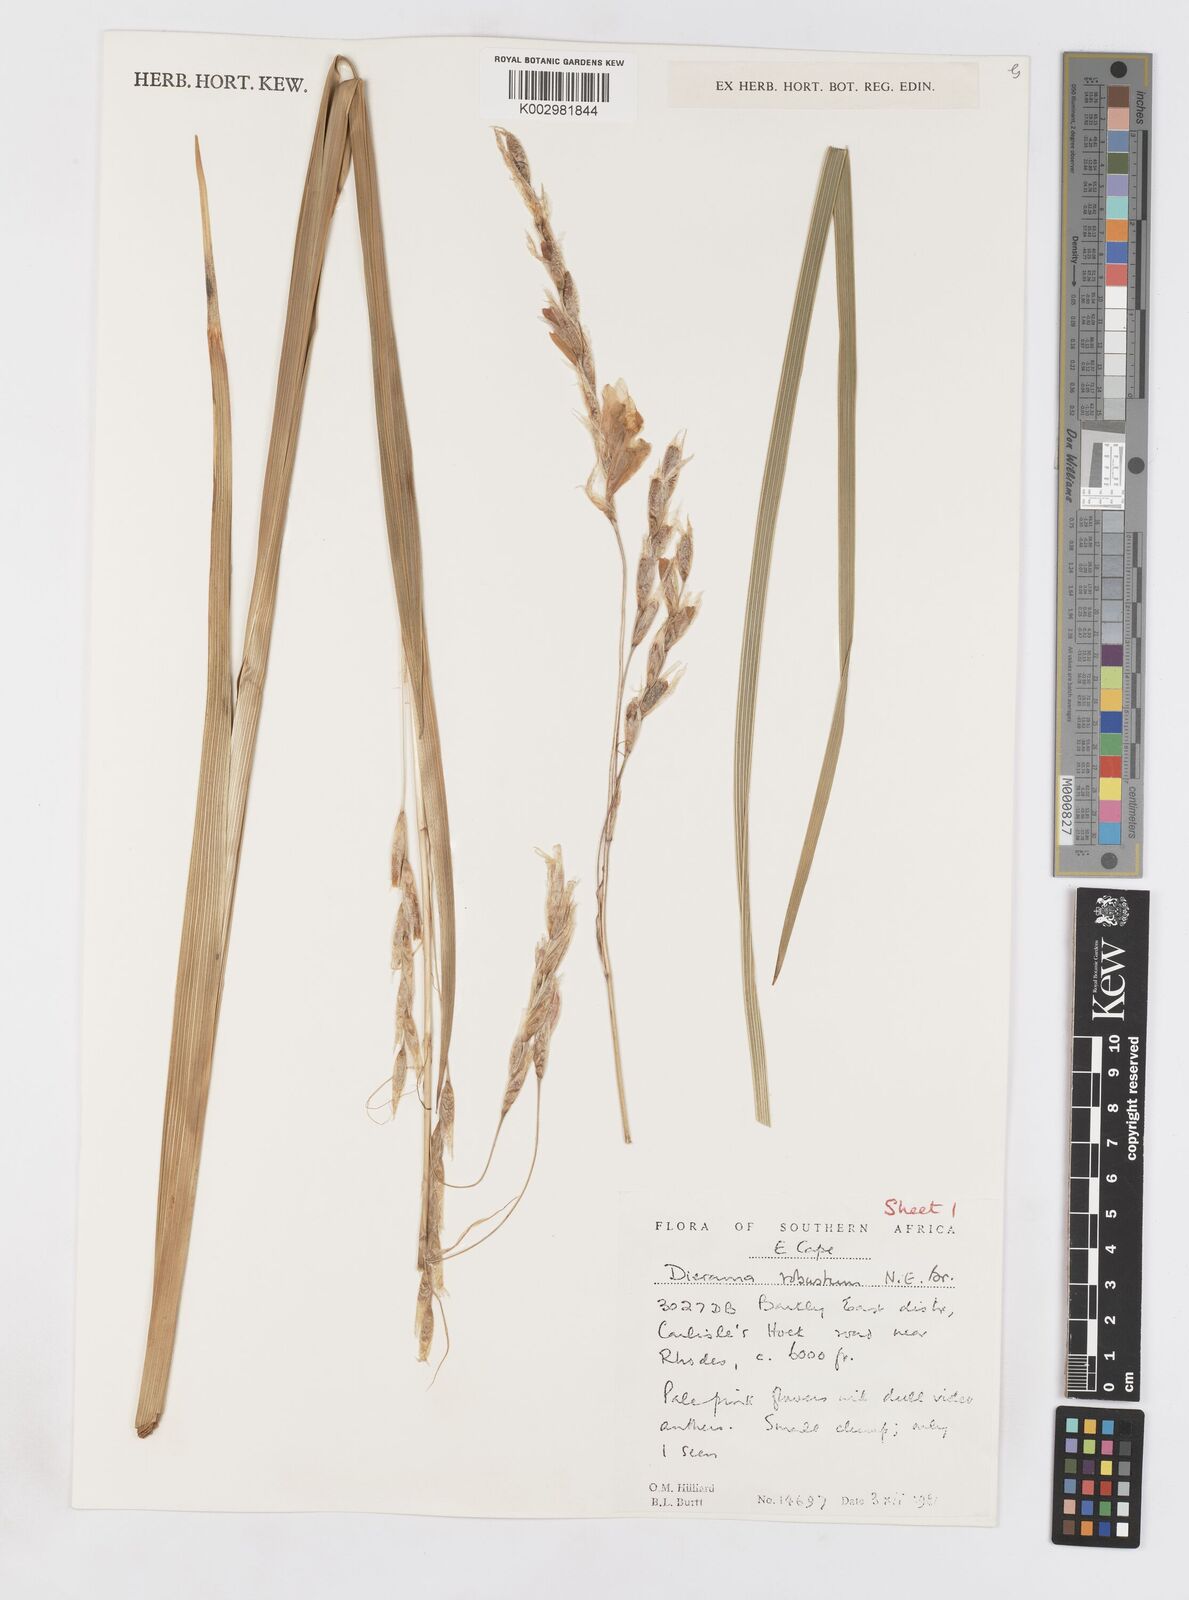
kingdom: Plantae
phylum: Tracheophyta
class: Liliopsida
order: Asparagales
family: Iridaceae
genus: Dierama
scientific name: Dierama robustum
